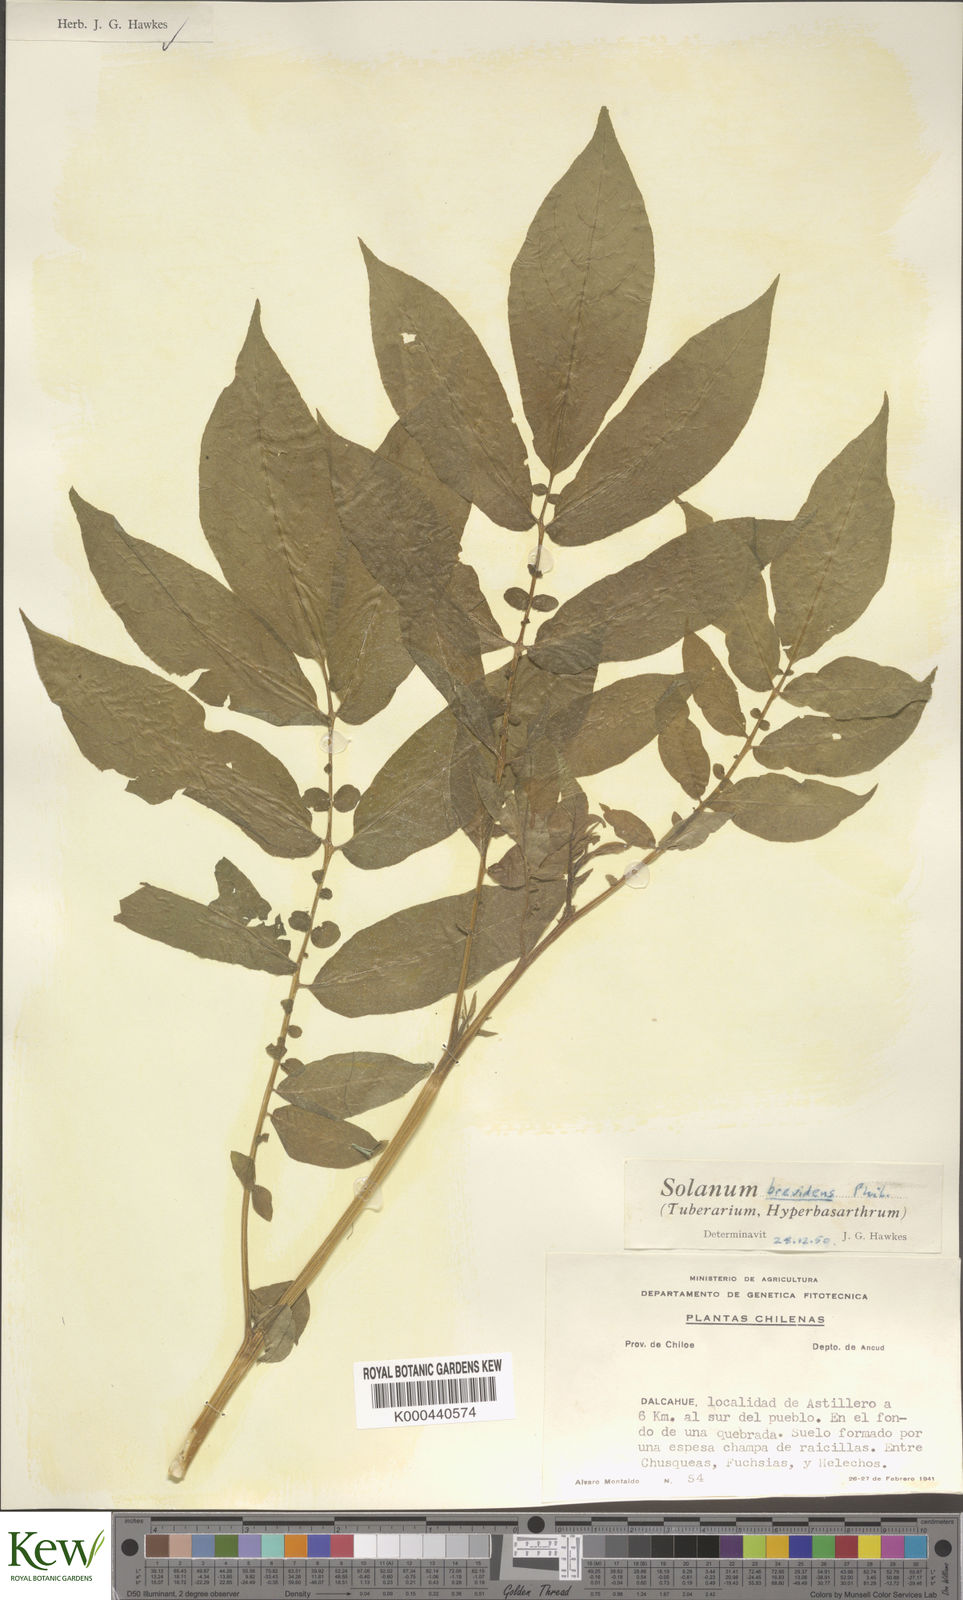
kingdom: Plantae
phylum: Tracheophyta
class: Magnoliopsida
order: Solanales
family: Solanaceae
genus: Solanum
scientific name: Solanum palustre
